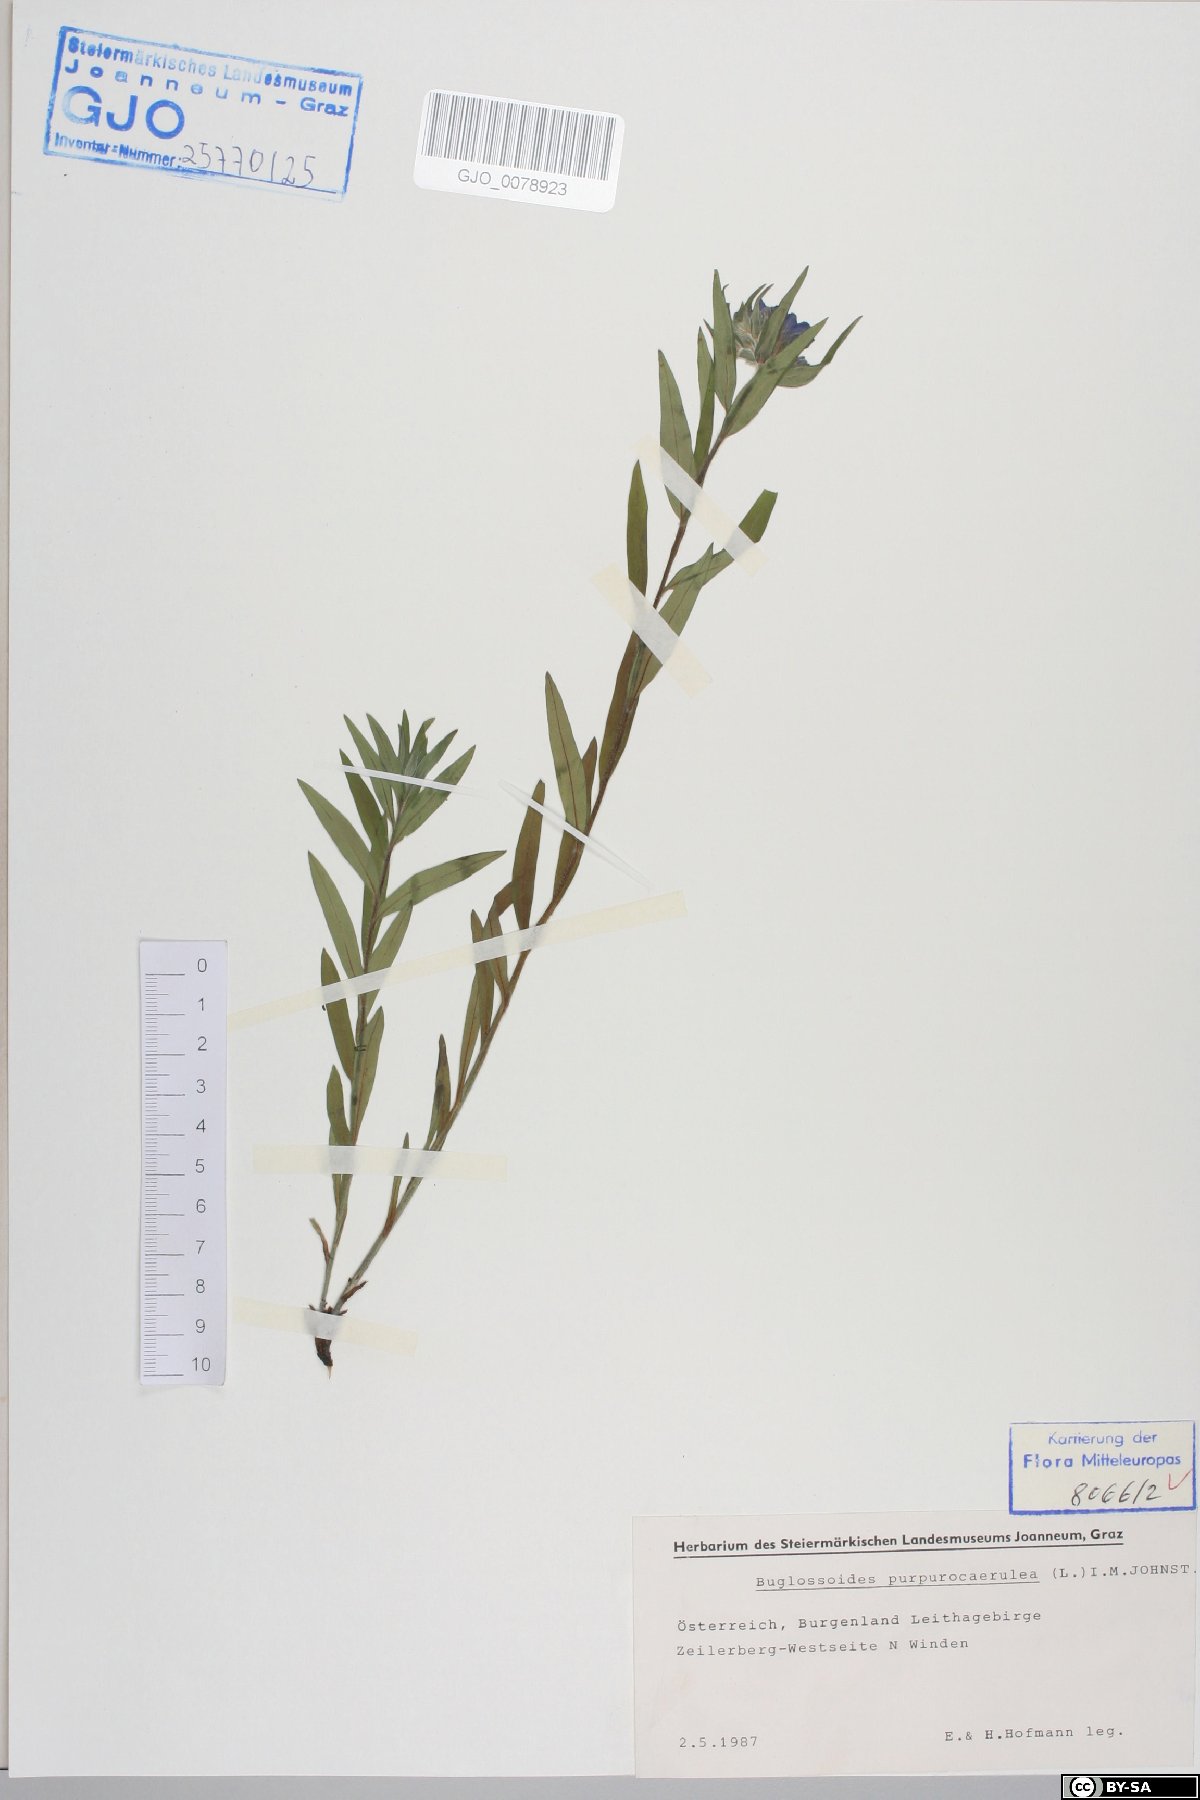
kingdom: Plantae
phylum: Tracheophyta
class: Magnoliopsida
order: Boraginales
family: Boraginaceae
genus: Aegonychon
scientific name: Aegonychon purpurocaeruleum
